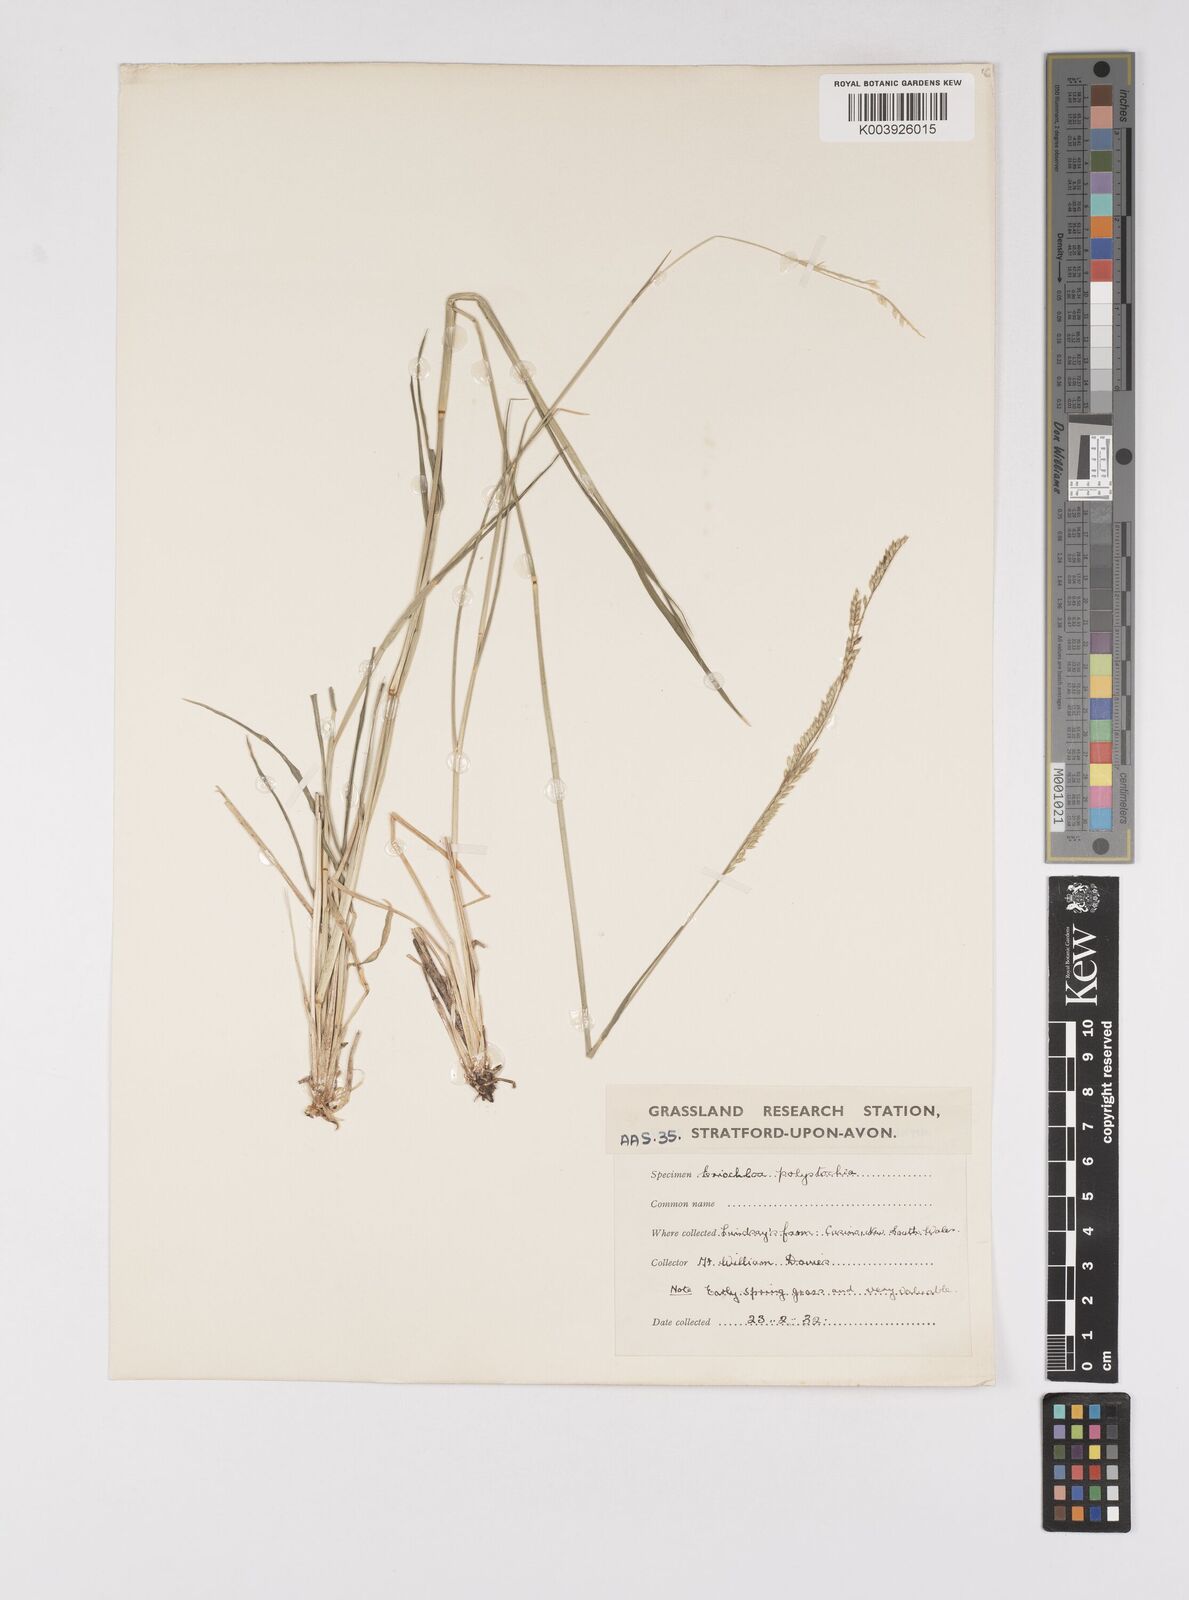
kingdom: Plantae
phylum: Tracheophyta
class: Liliopsida
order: Poales
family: Poaceae
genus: Eriochloa
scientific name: Eriochloa
